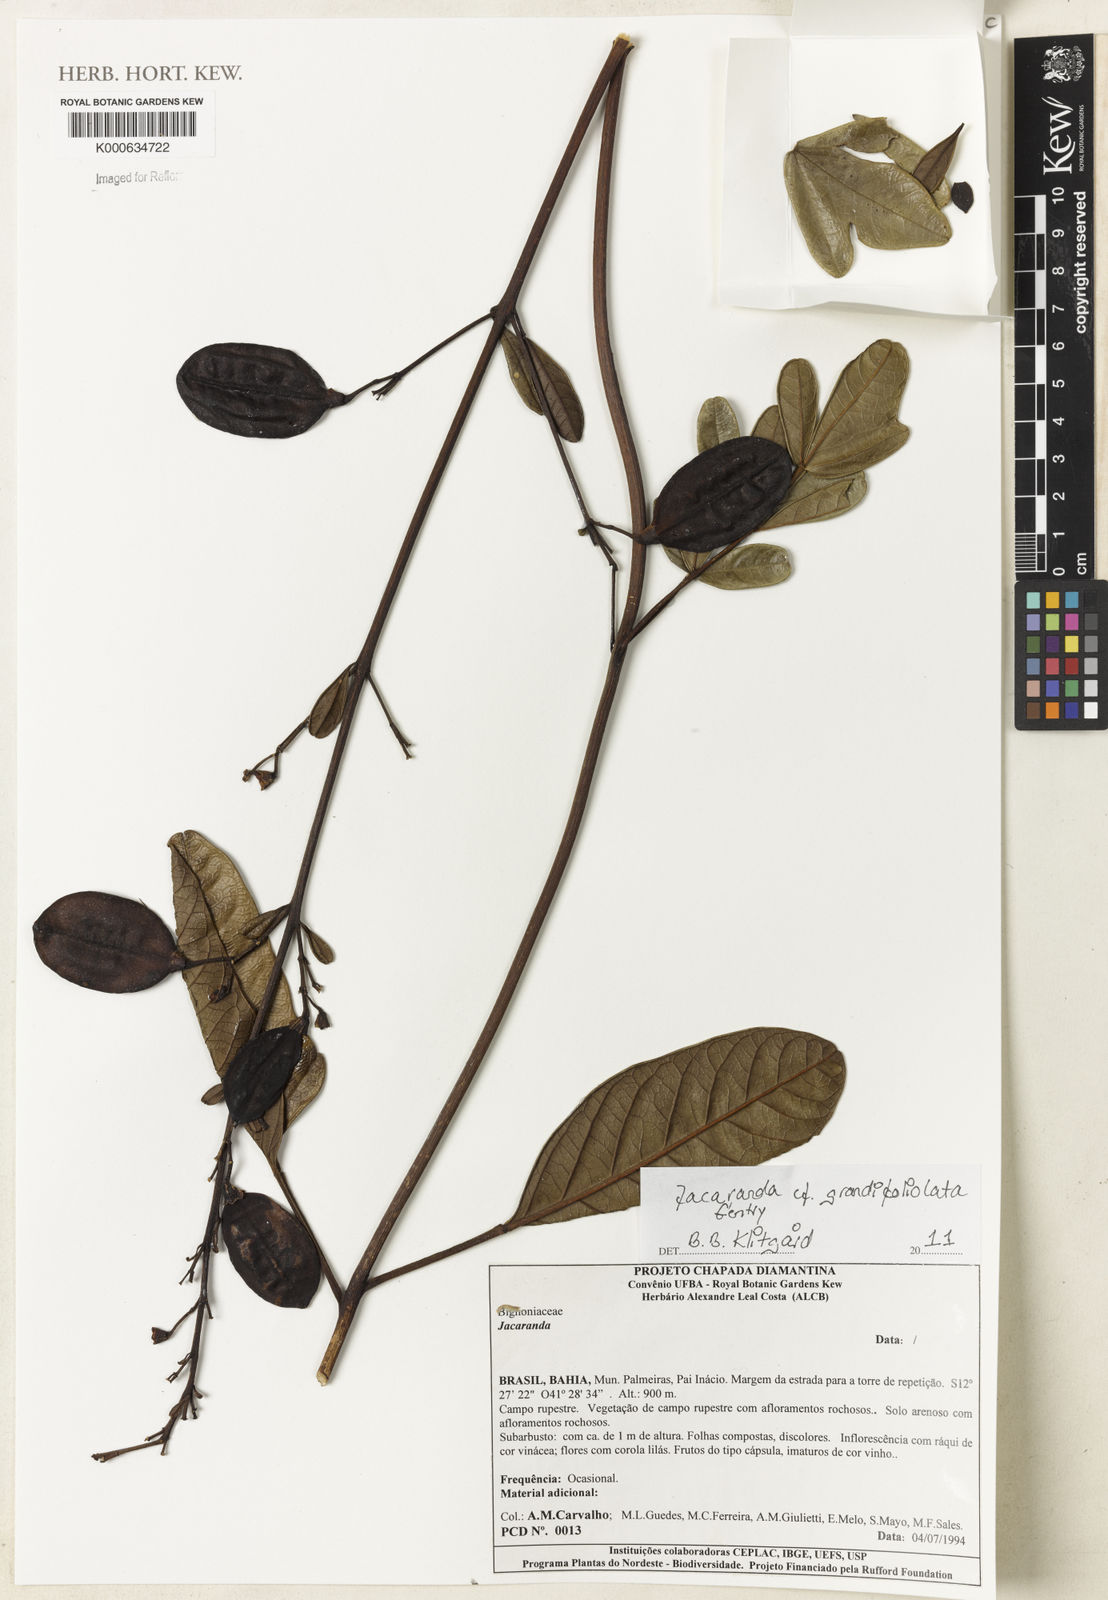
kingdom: Plantae
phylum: Tracheophyta
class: Magnoliopsida
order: Lamiales
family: Bignoniaceae
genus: Jacaranda
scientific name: Jacaranda grandifoliolata
